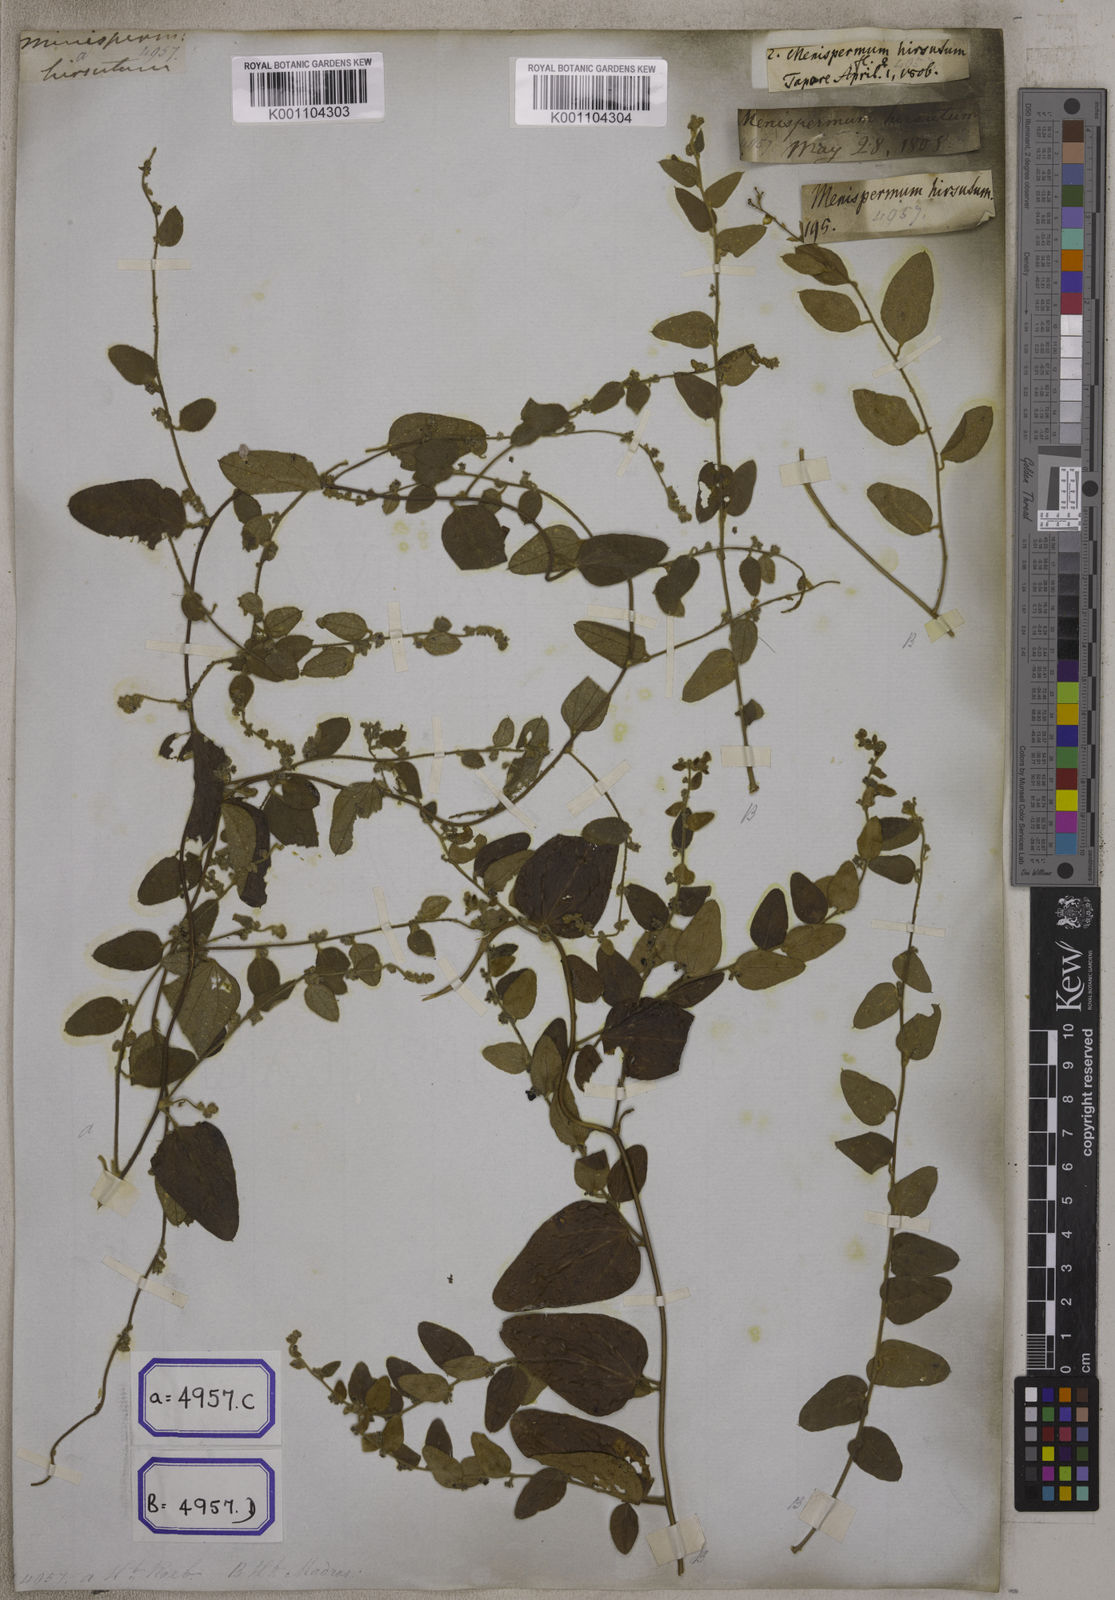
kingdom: Plantae
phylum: Tracheophyta
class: Magnoliopsida
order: Ranunculales
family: Menispermaceae
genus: Cocculus
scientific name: Cocculus hirsutus
